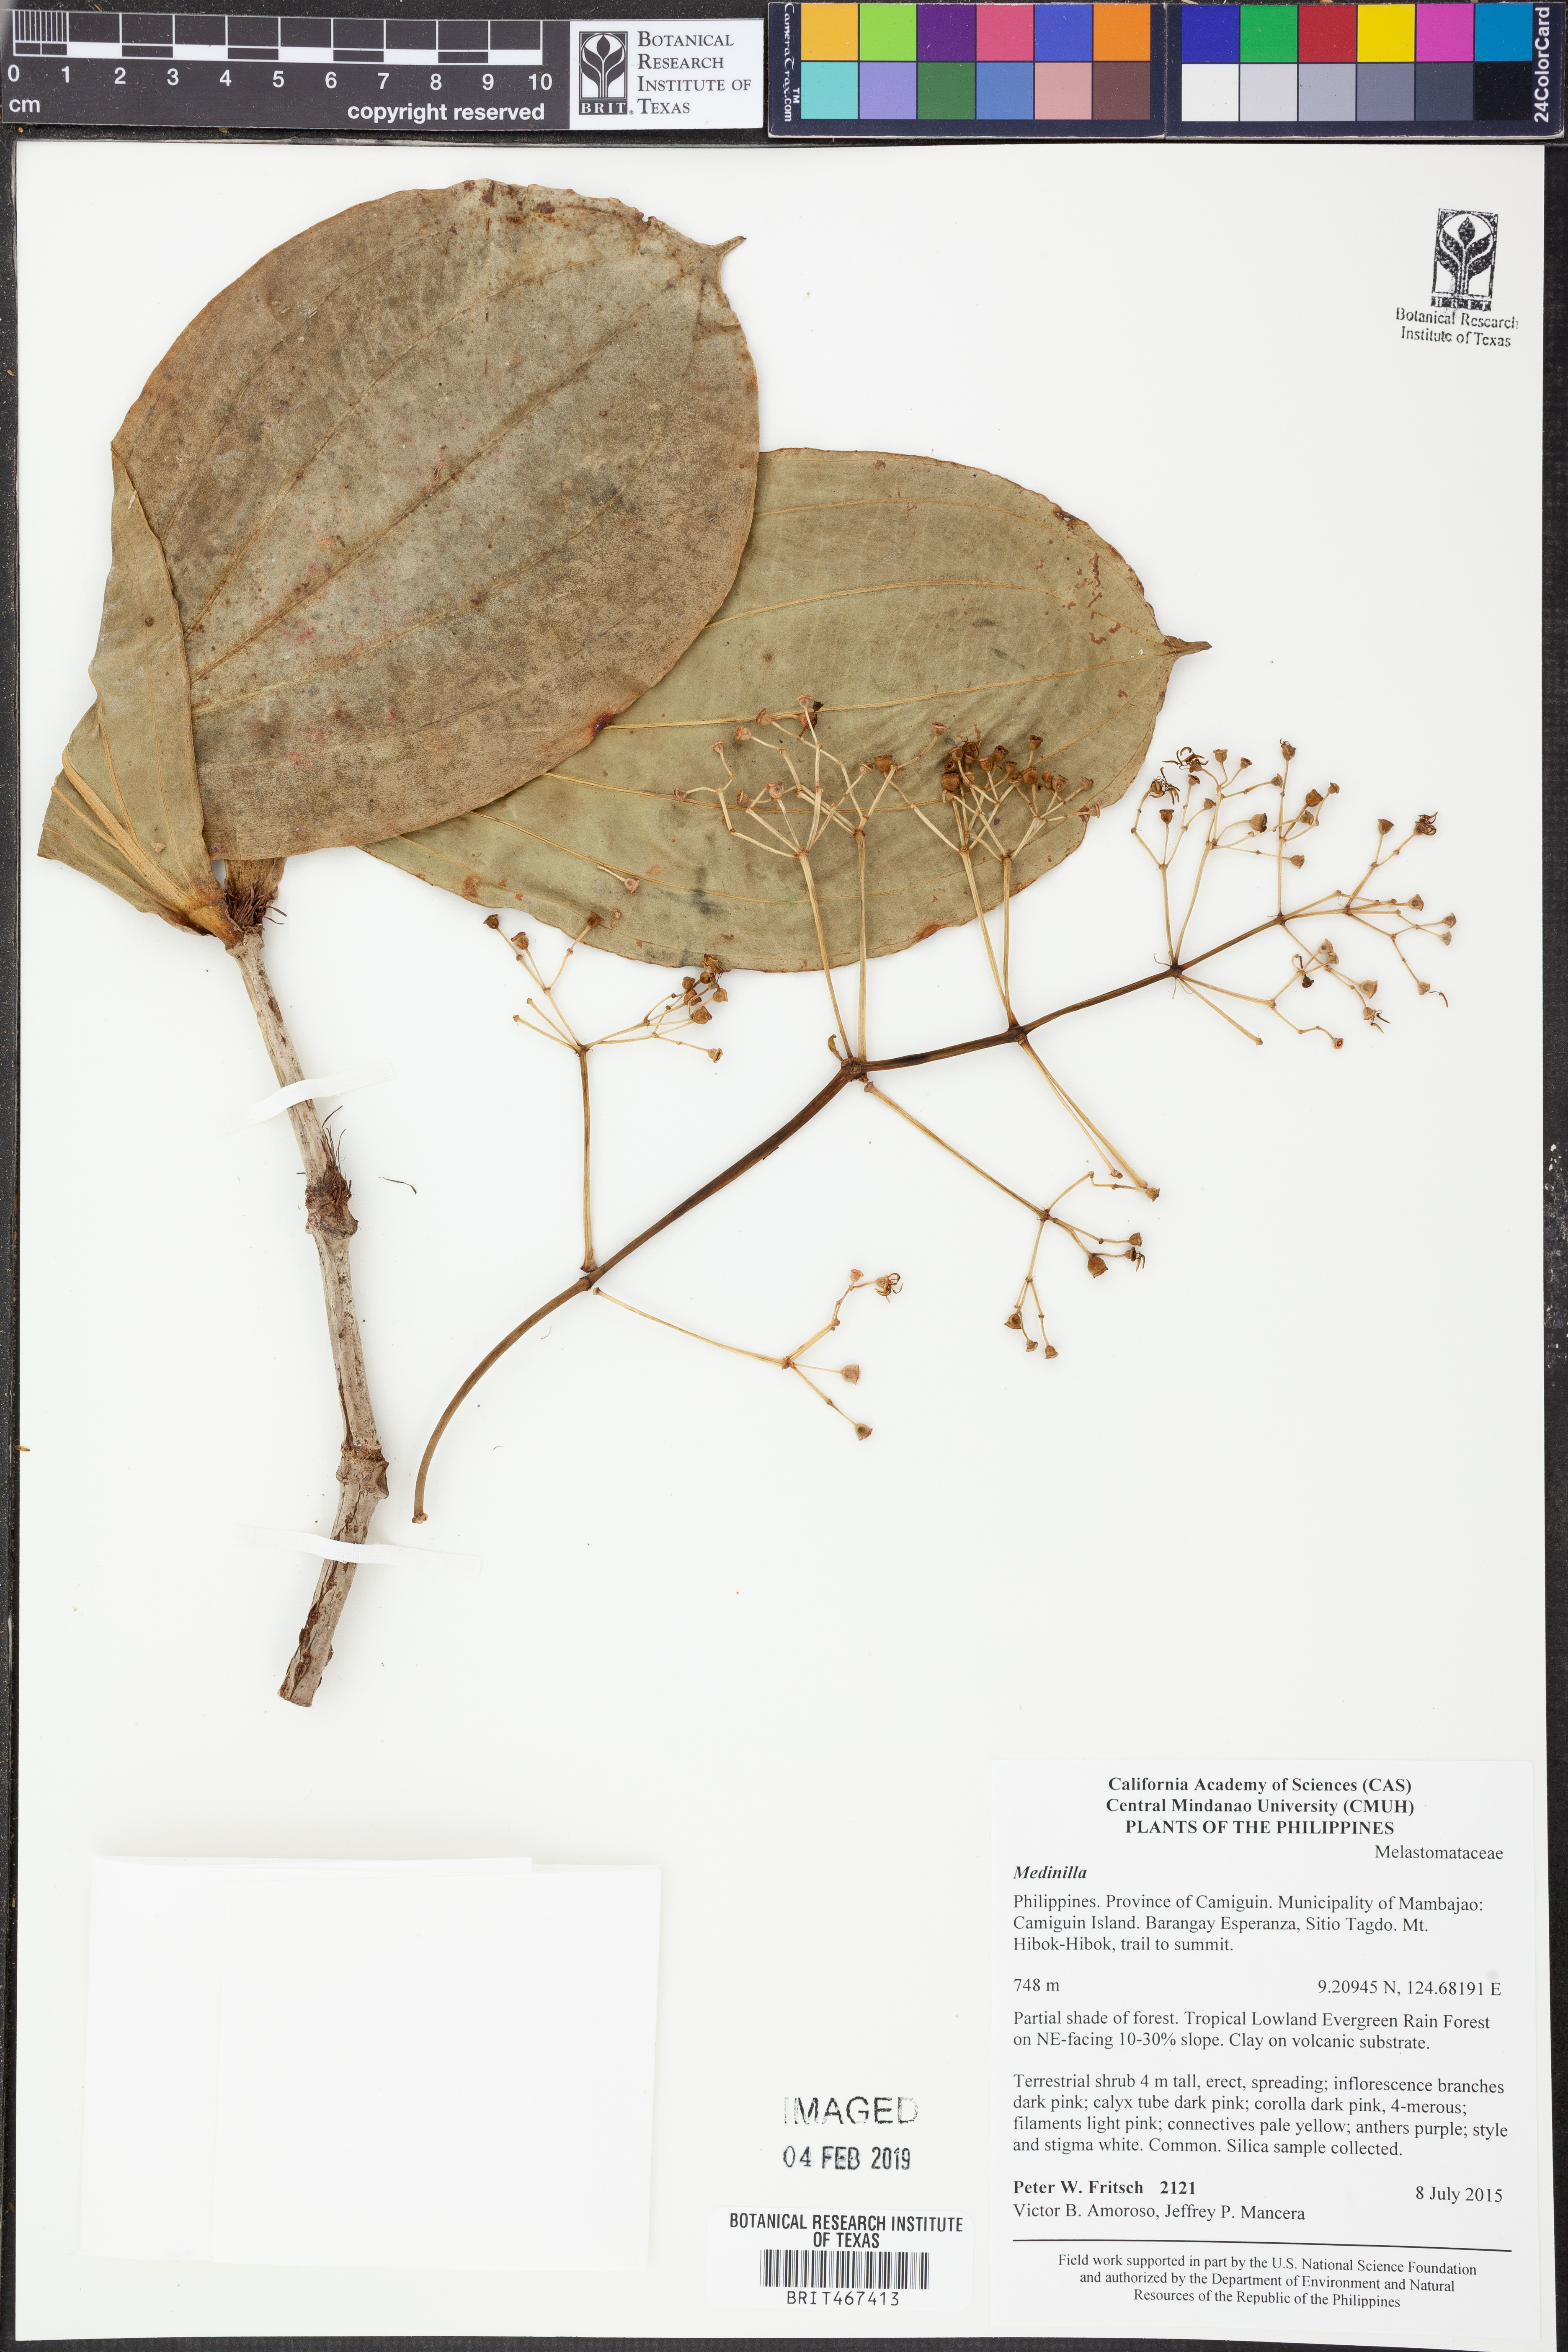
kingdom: Plantae
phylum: Tracheophyta
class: Magnoliopsida
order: Myrtales
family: Melastomataceae
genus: Medinilla
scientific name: Medinilla
